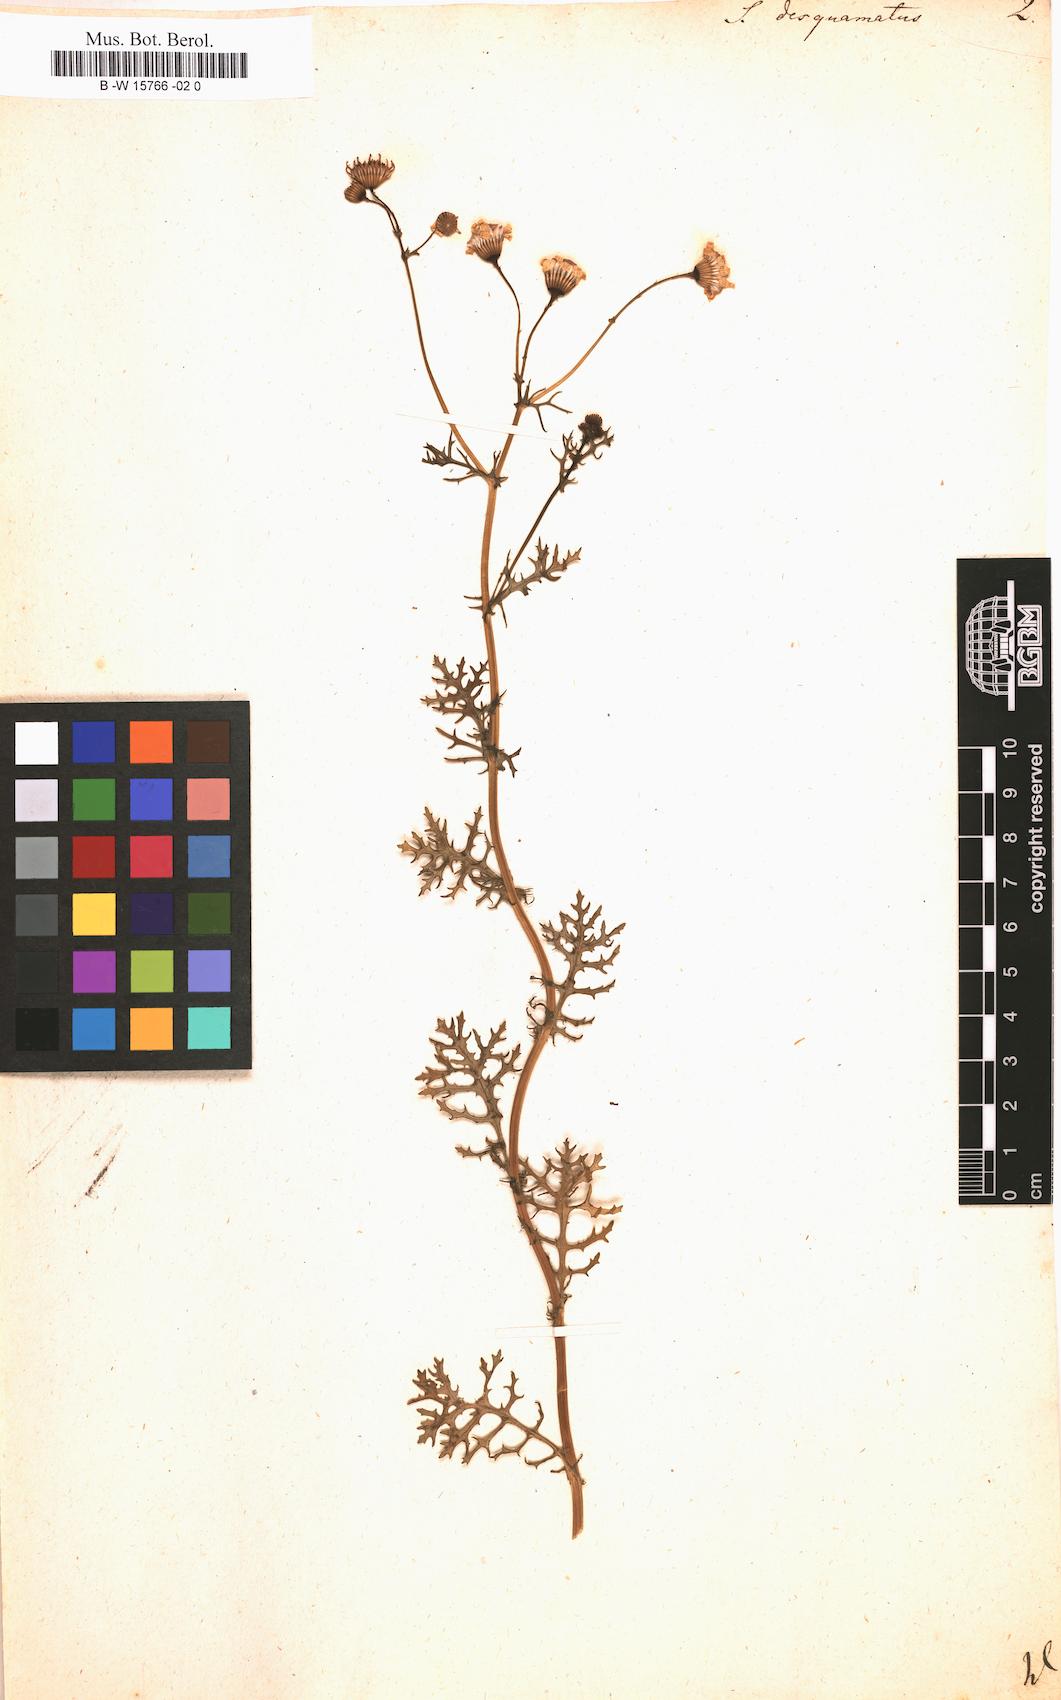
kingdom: Plantae
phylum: Tracheophyta
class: Magnoliopsida
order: Asterales
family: Asteraceae
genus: Senecio
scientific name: Senecio gallicus
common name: French groundsel
